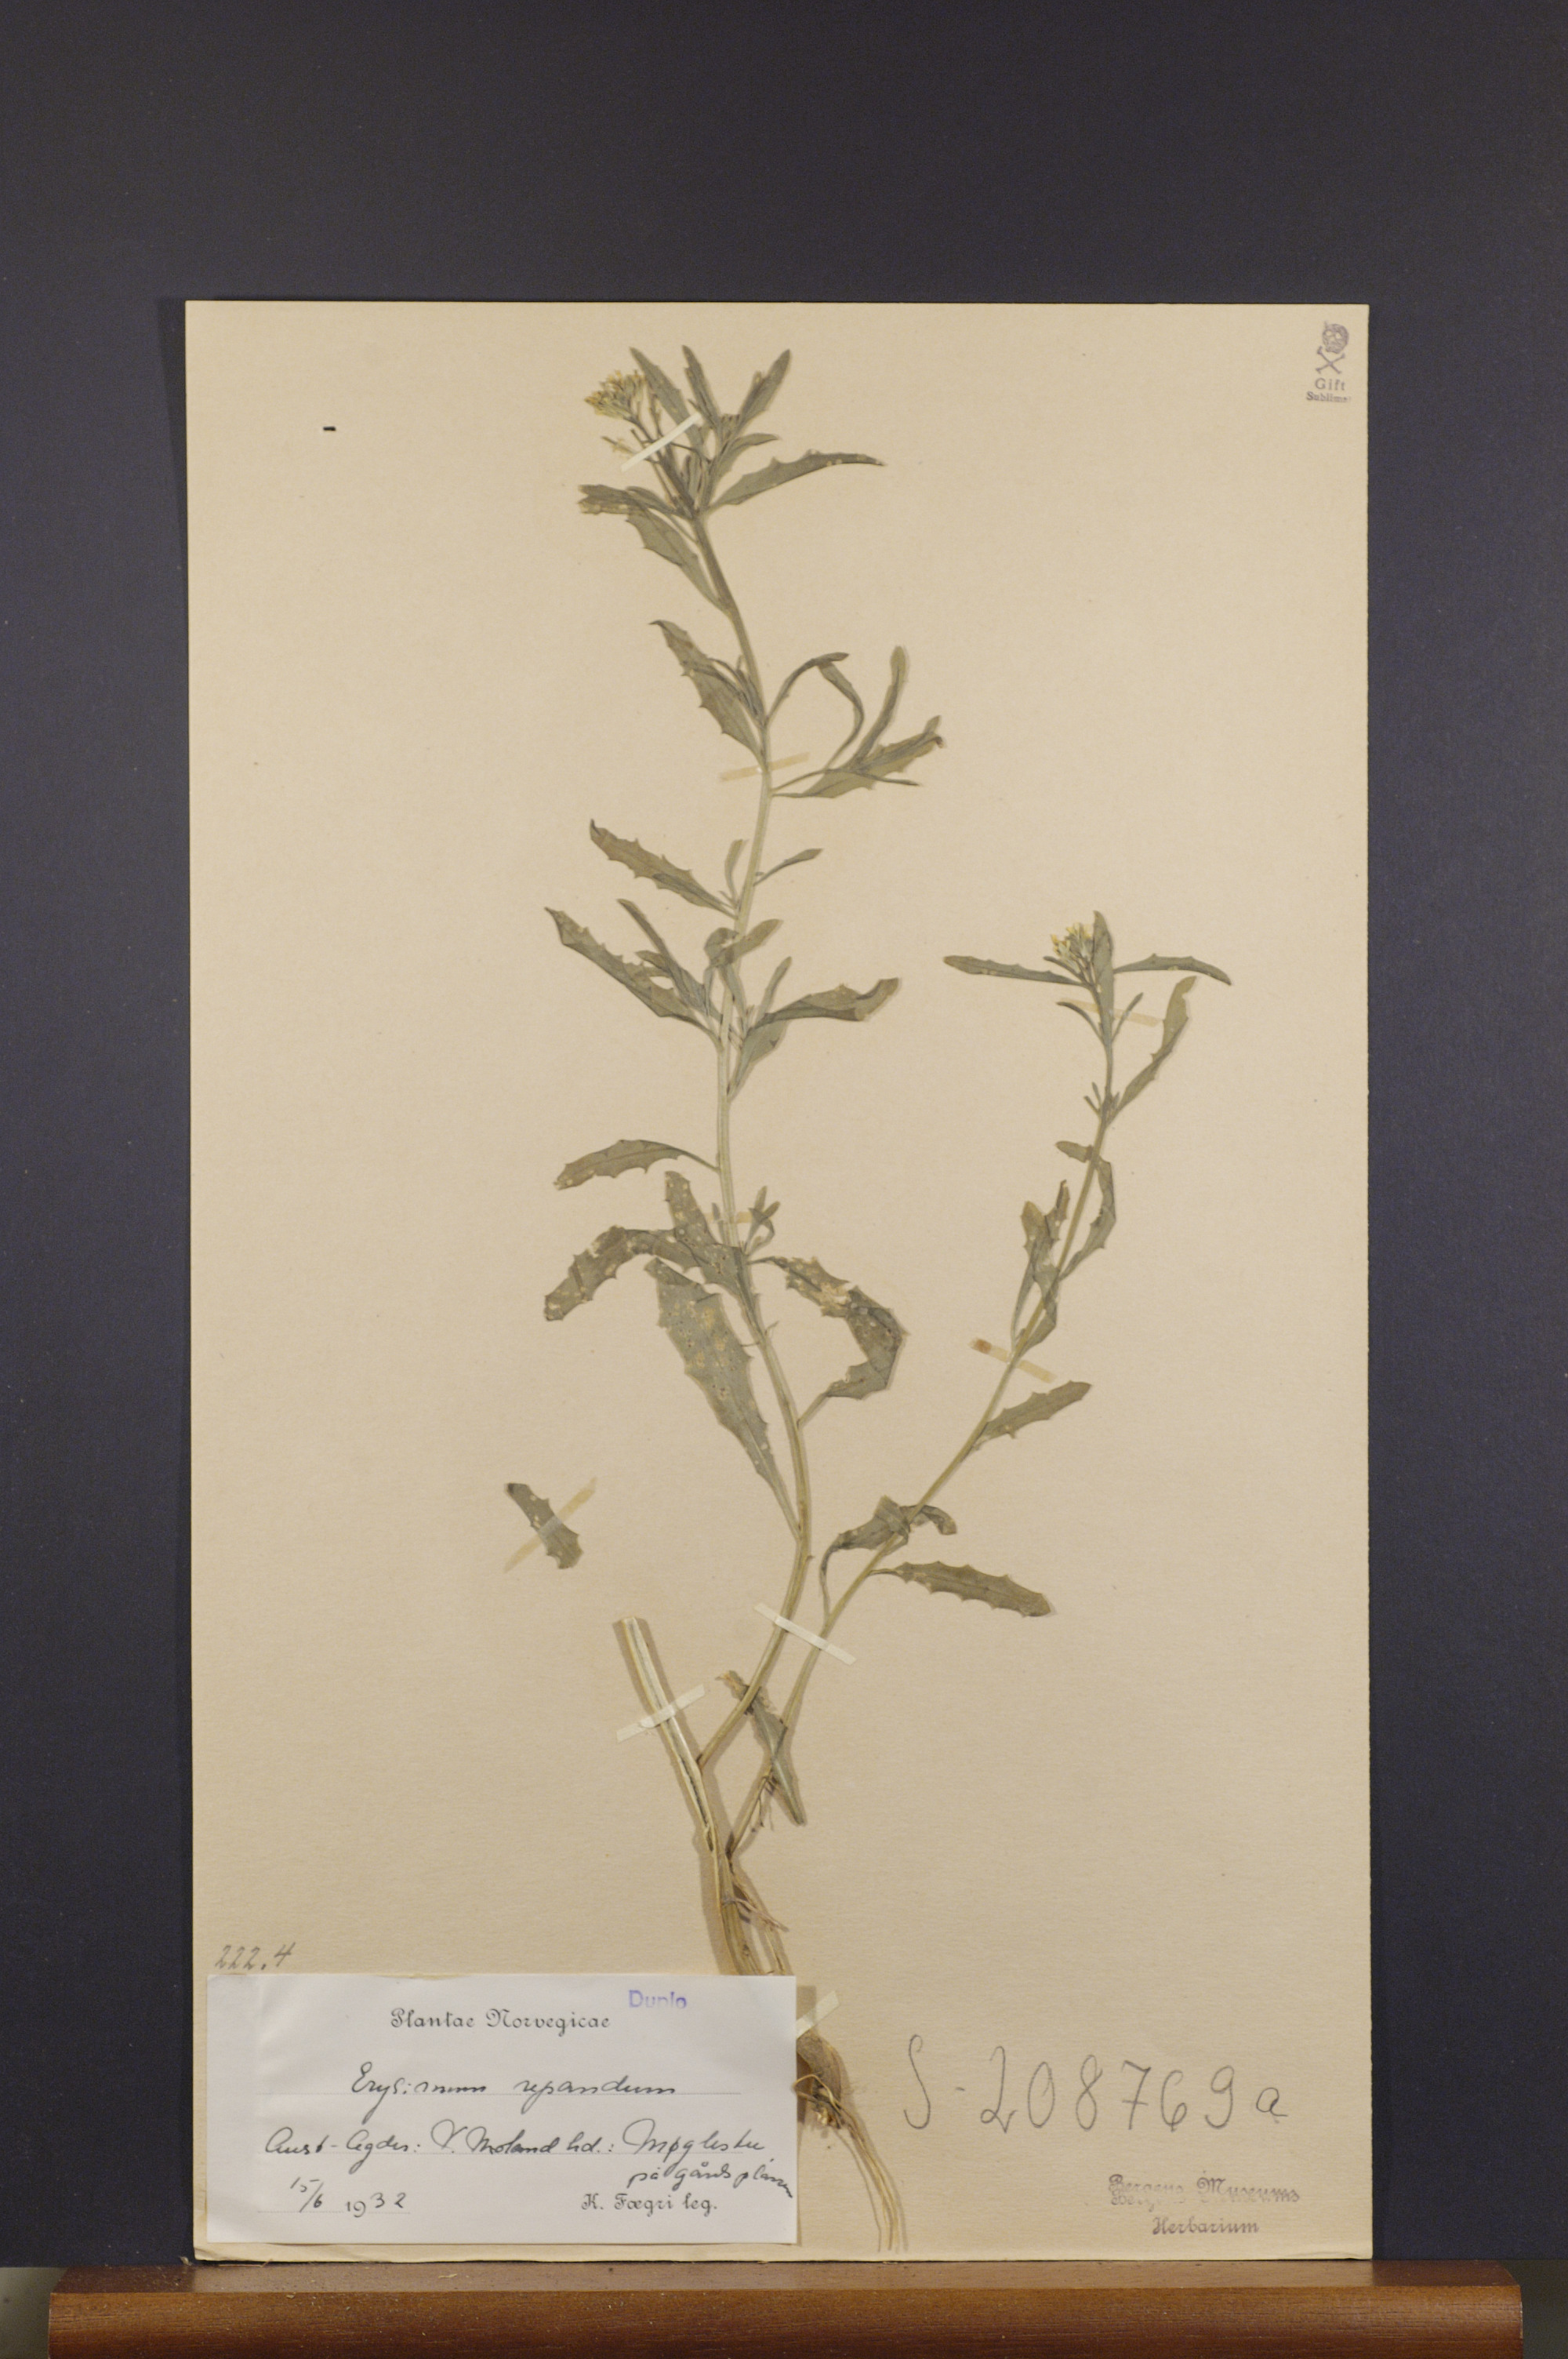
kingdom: Plantae
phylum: Tracheophyta
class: Magnoliopsida
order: Brassicales
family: Brassicaceae
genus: Erysimum
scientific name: Erysimum repandum
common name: Spreading wallflower
